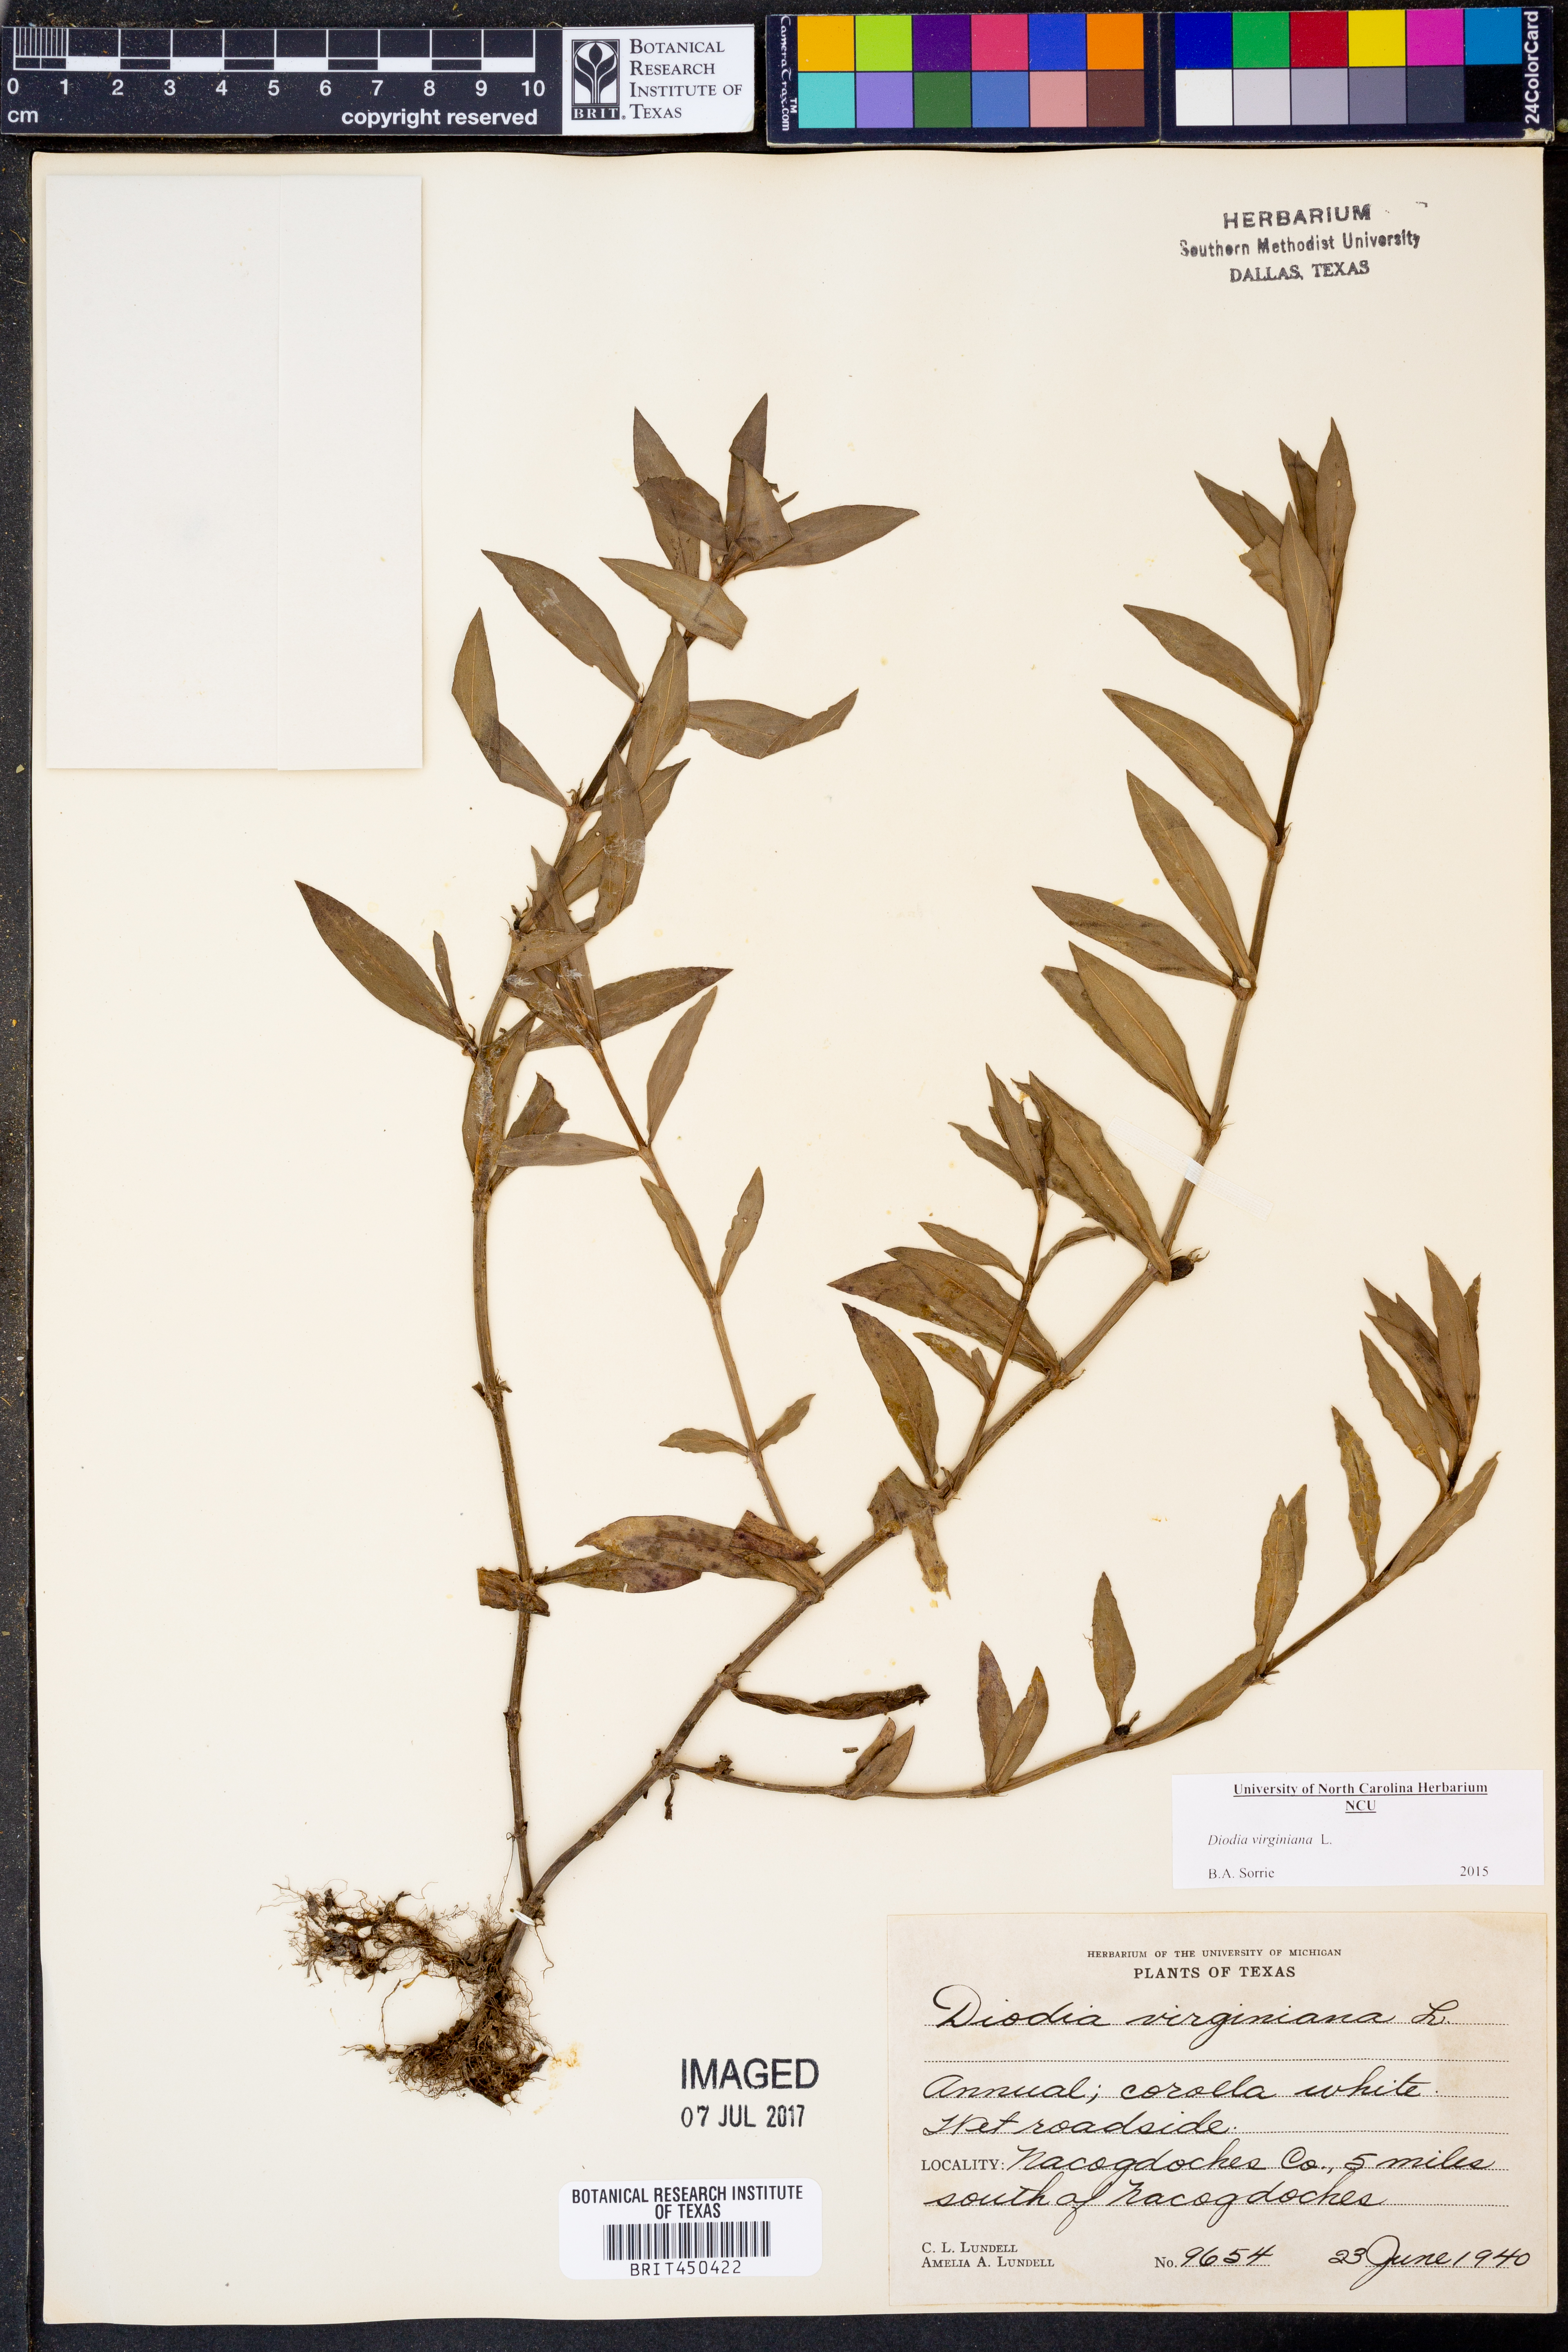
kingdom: Plantae
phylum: Tracheophyta
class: Magnoliopsida
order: Gentianales
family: Rubiaceae
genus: Diodia
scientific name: Diodia virginiana
